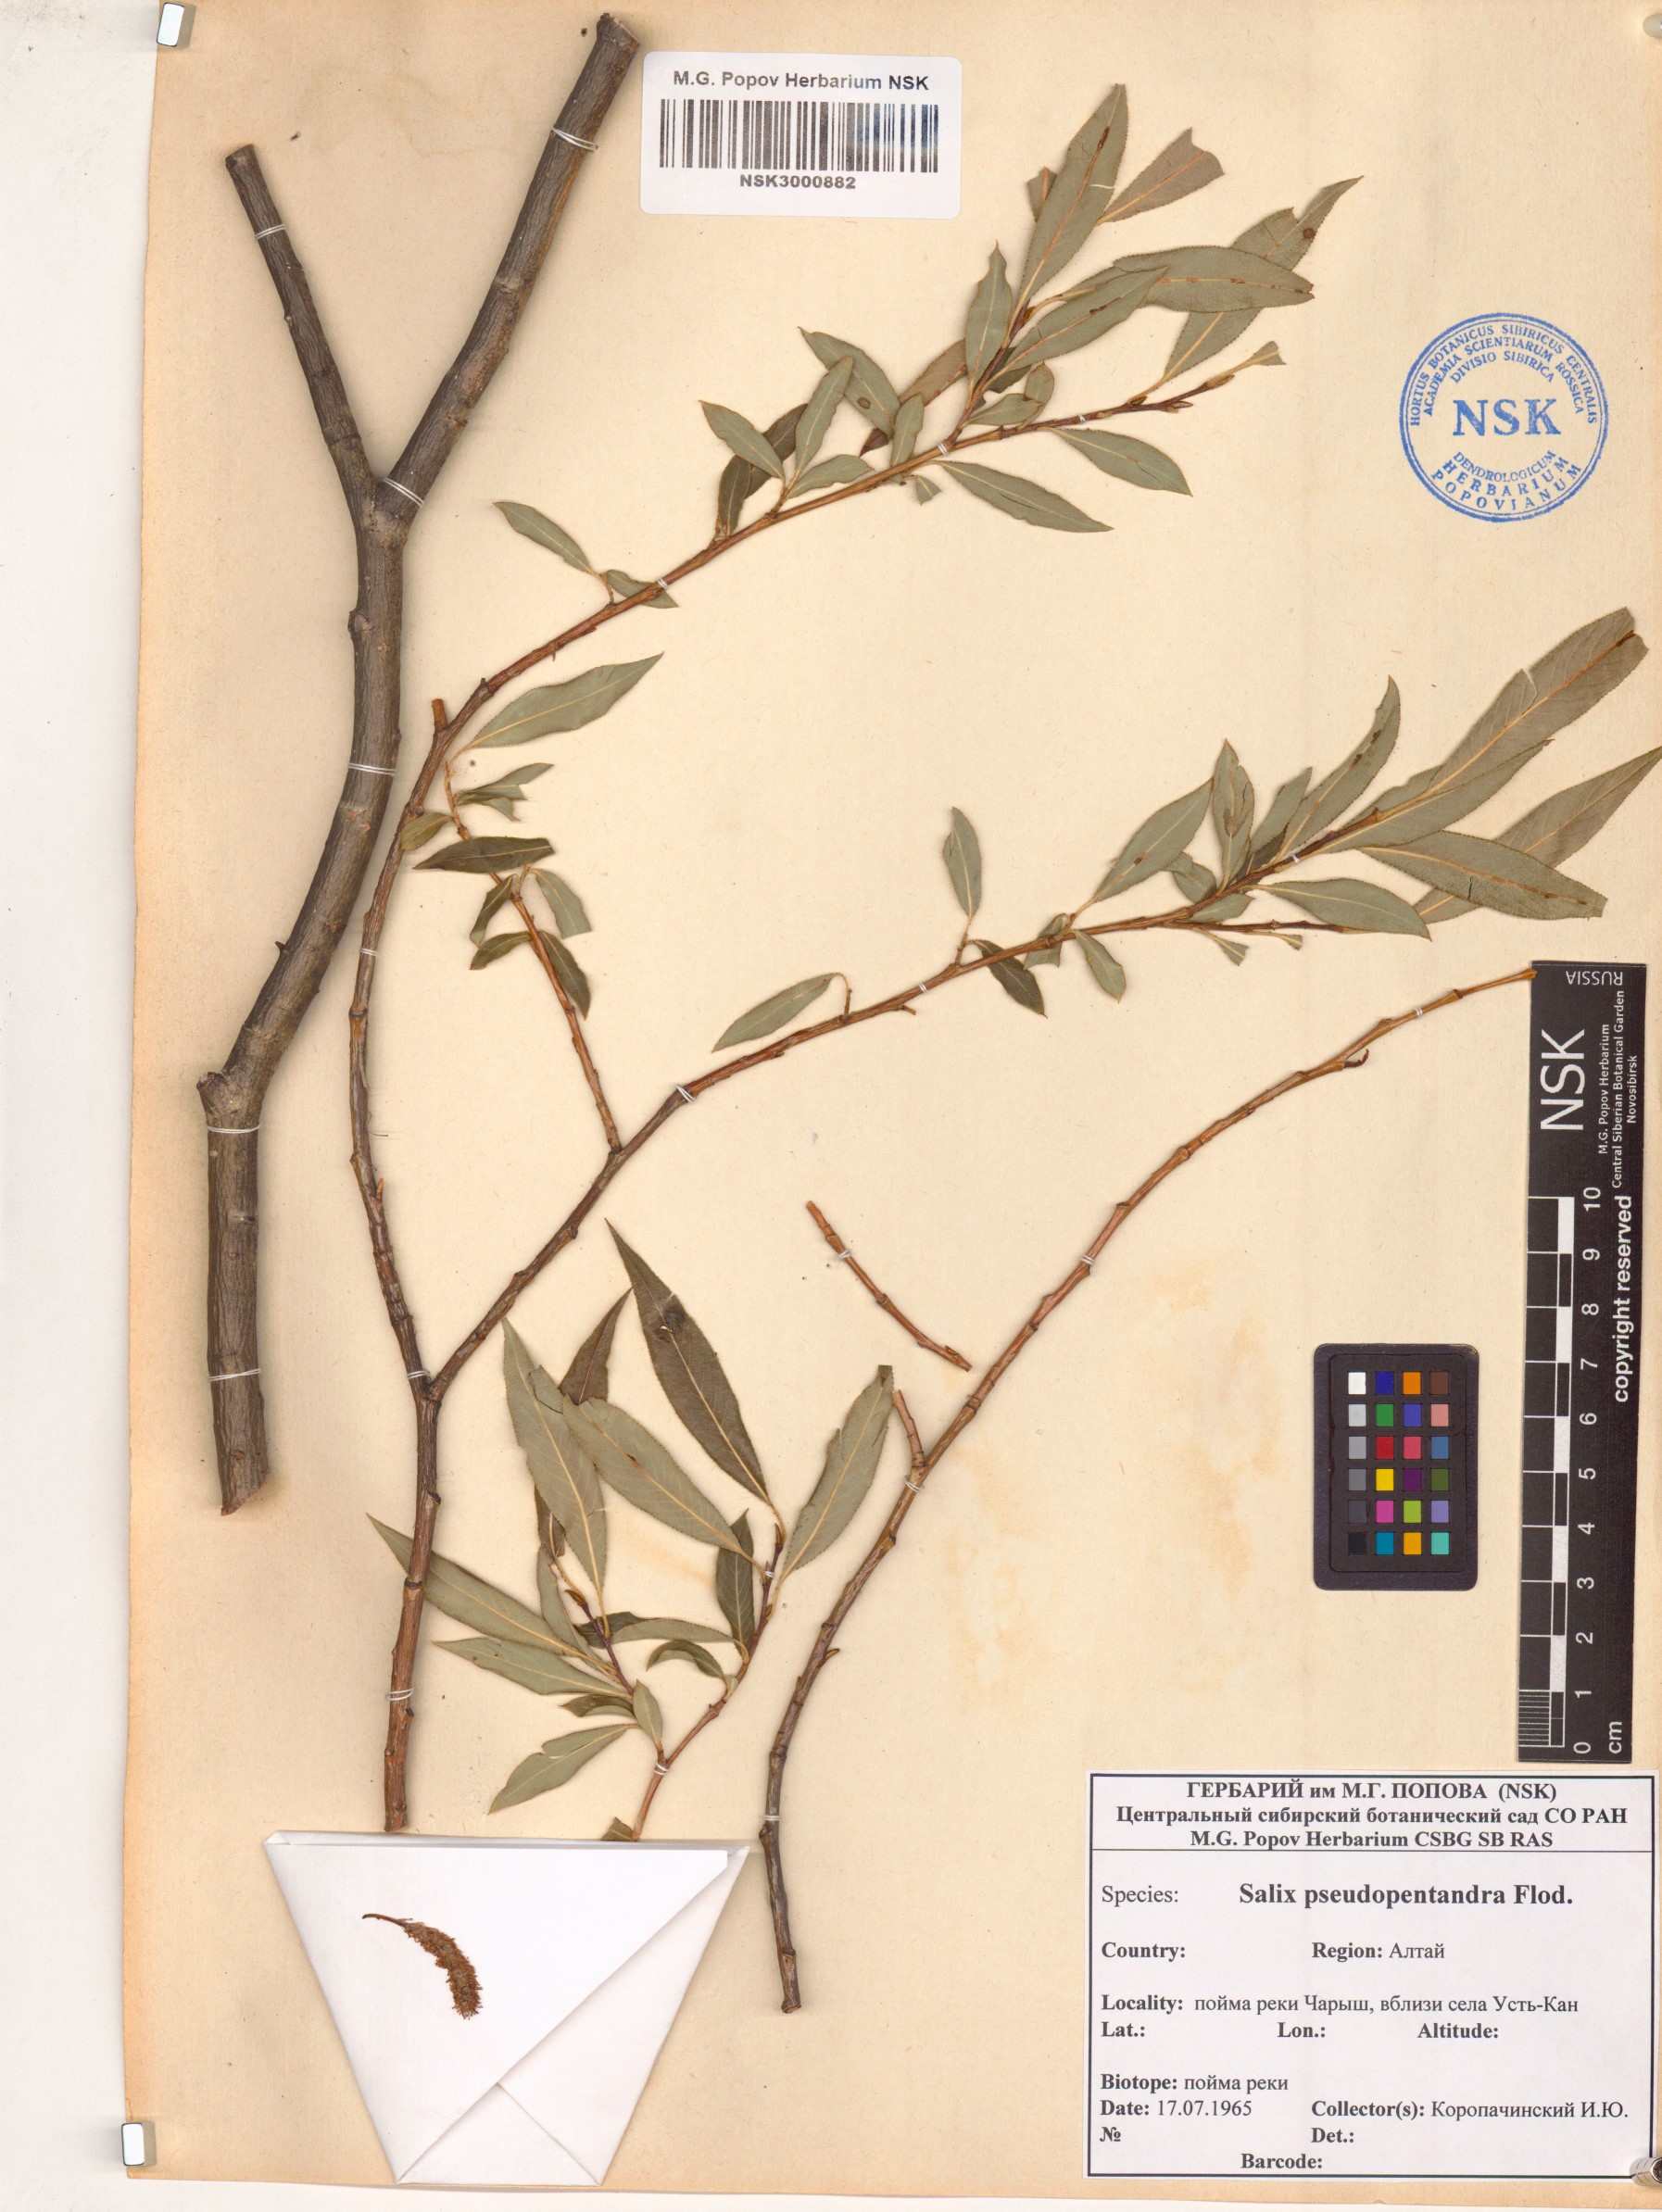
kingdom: Plantae
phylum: Tracheophyta
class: Magnoliopsida
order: Malpighiales
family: Salicaceae
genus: Salix
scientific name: Salix pseudopentandra
